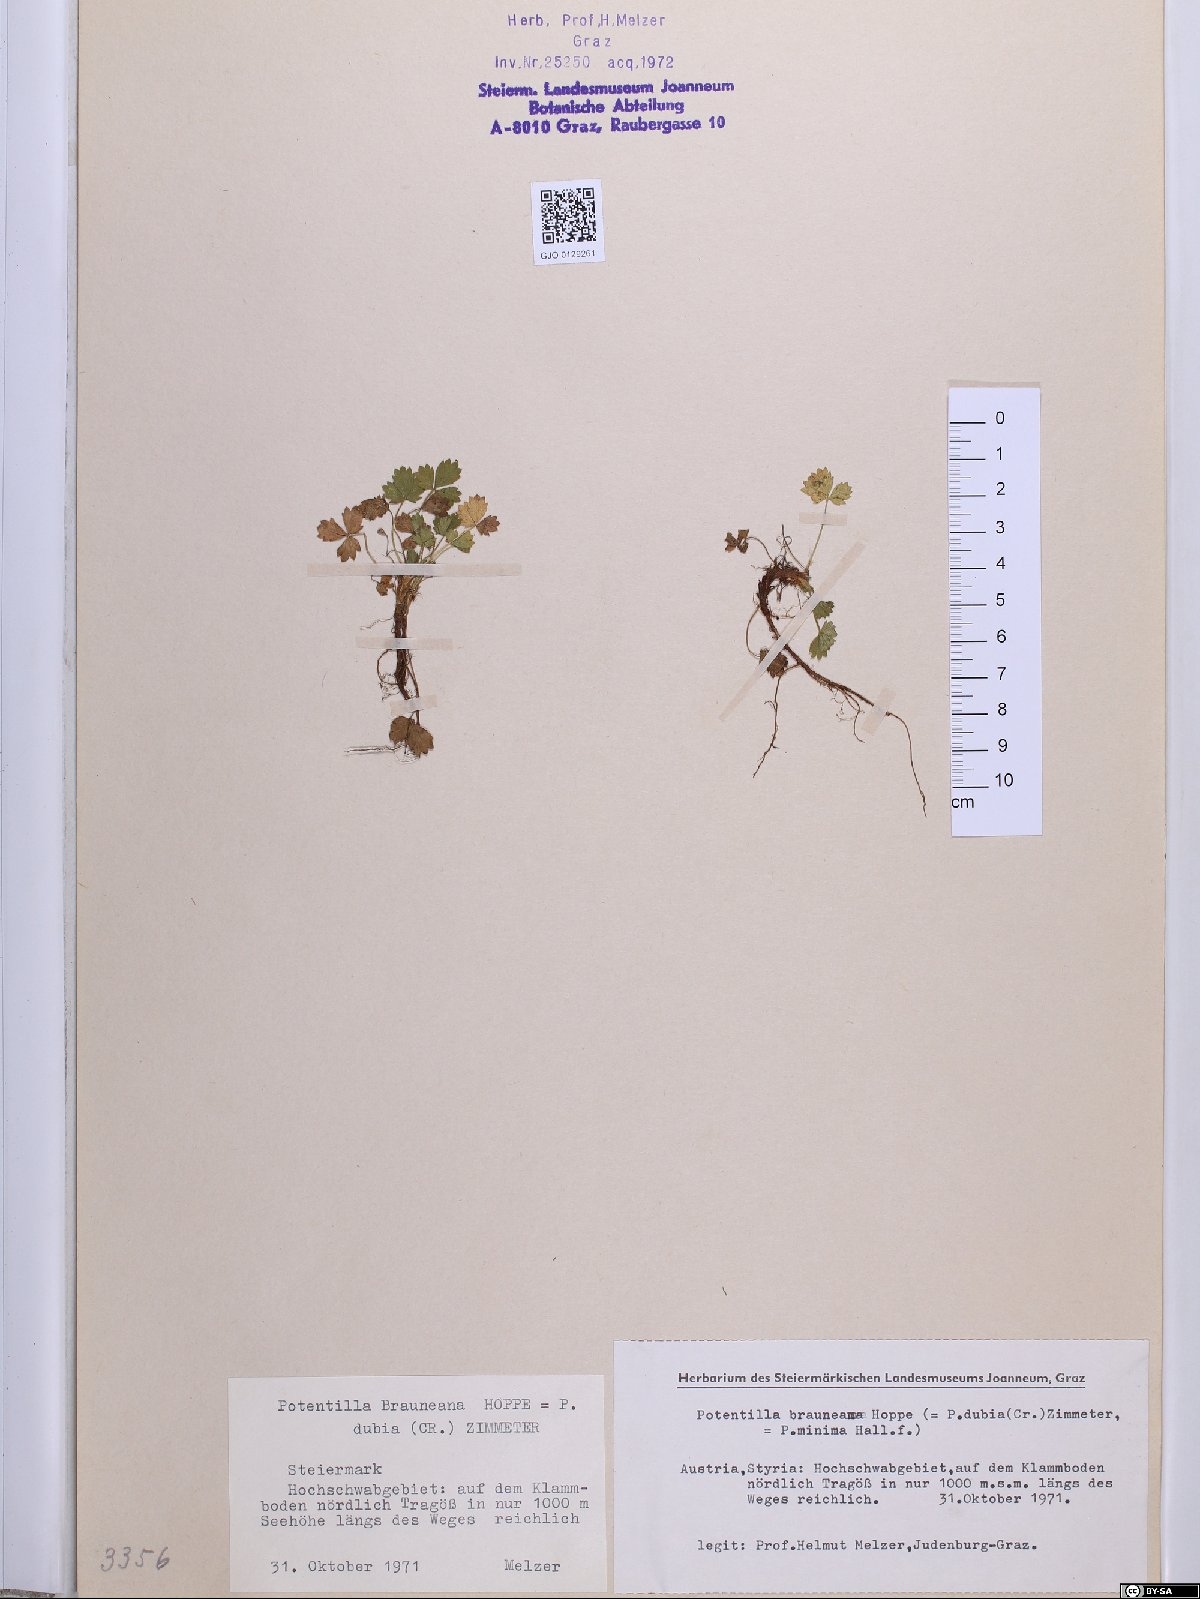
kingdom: Plantae
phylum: Tracheophyta
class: Magnoliopsida
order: Rosales
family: Rosaceae
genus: Potentilla
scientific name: Potentilla brauneana
